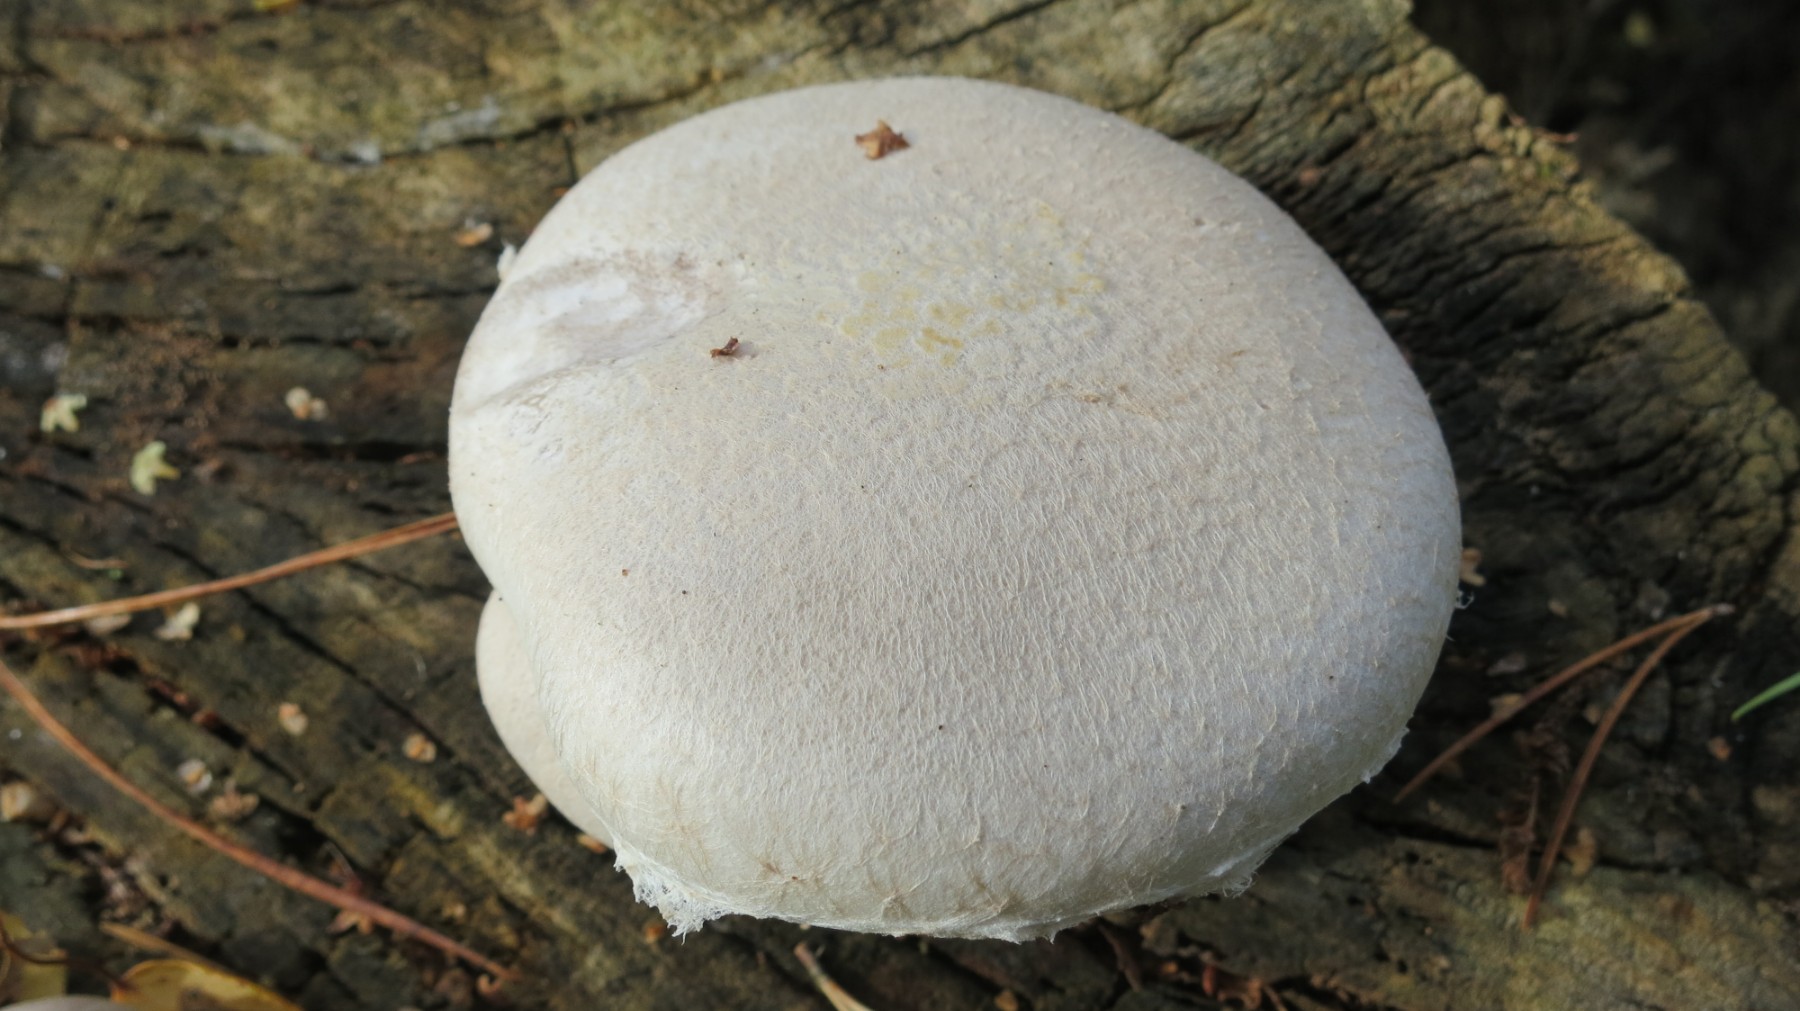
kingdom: Fungi
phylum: Basidiomycota
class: Agaricomycetes
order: Agaricales
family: Pleurotaceae
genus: Pleurotus
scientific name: Pleurotus dryinus
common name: korkagtig østershat
